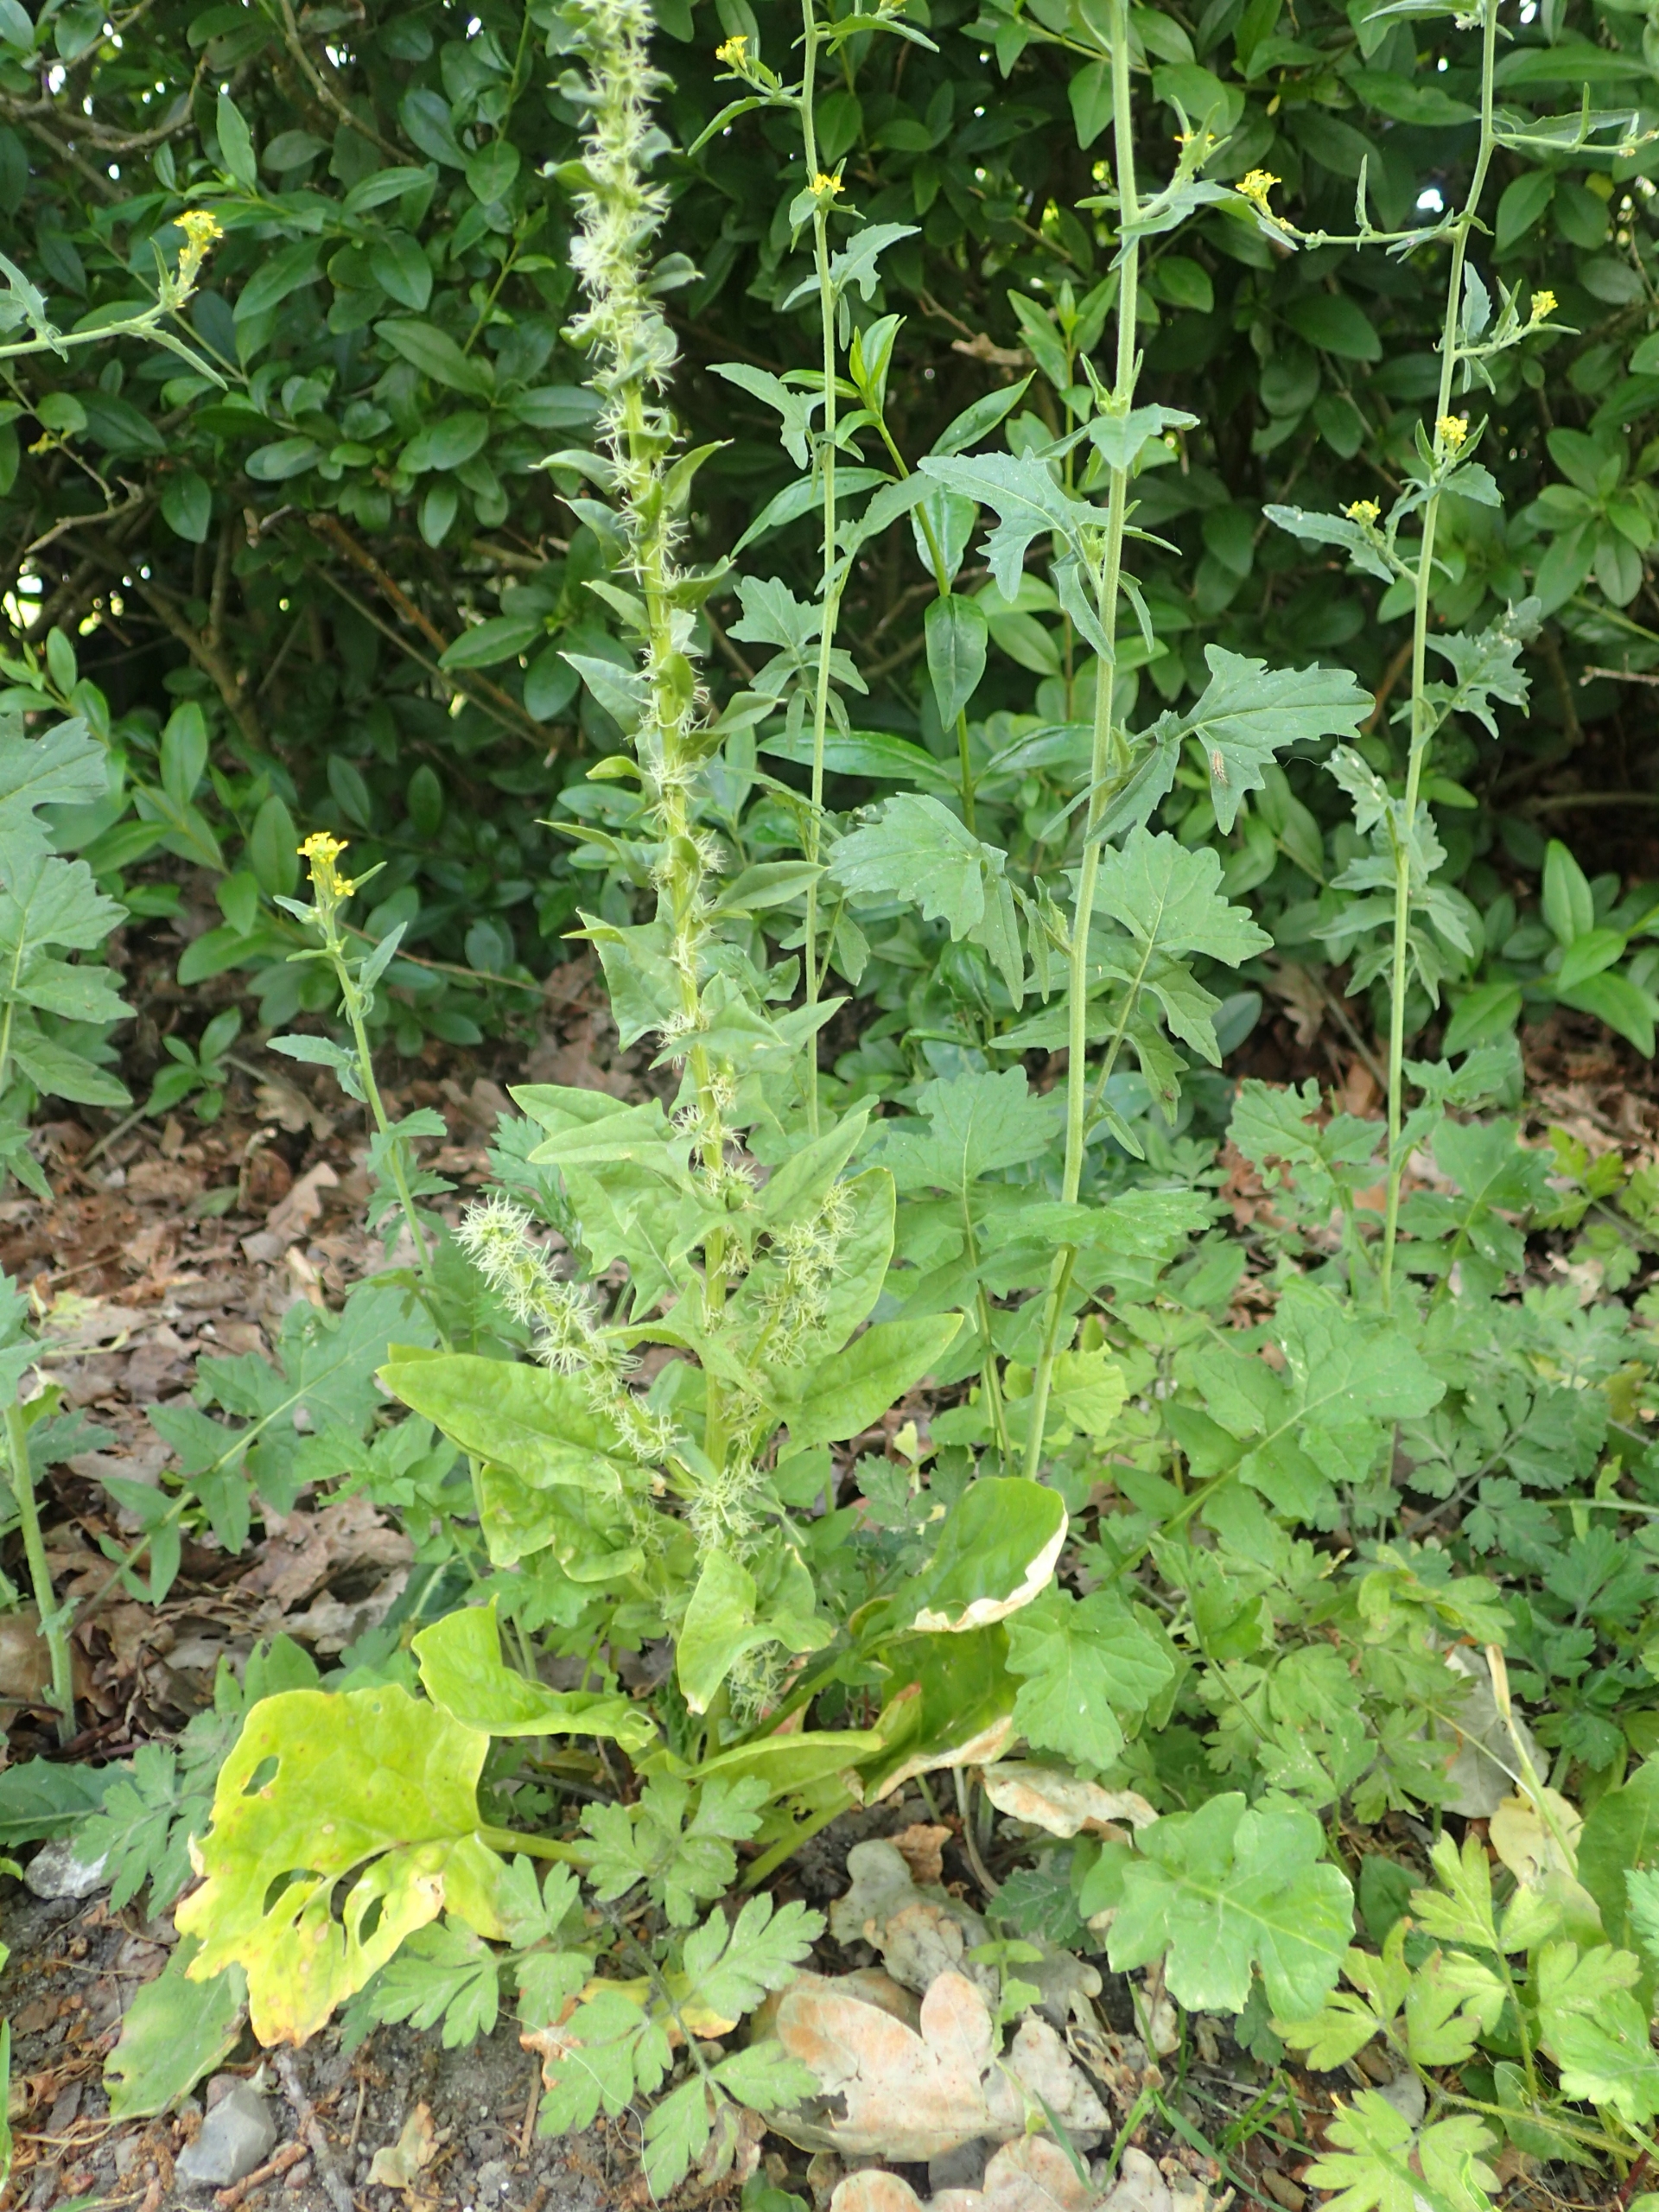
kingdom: Plantae
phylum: Tracheophyta
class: Magnoliopsida
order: Caryophyllales
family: Amaranthaceae
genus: Spinacia
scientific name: Spinacia oleracea
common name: Spinat
